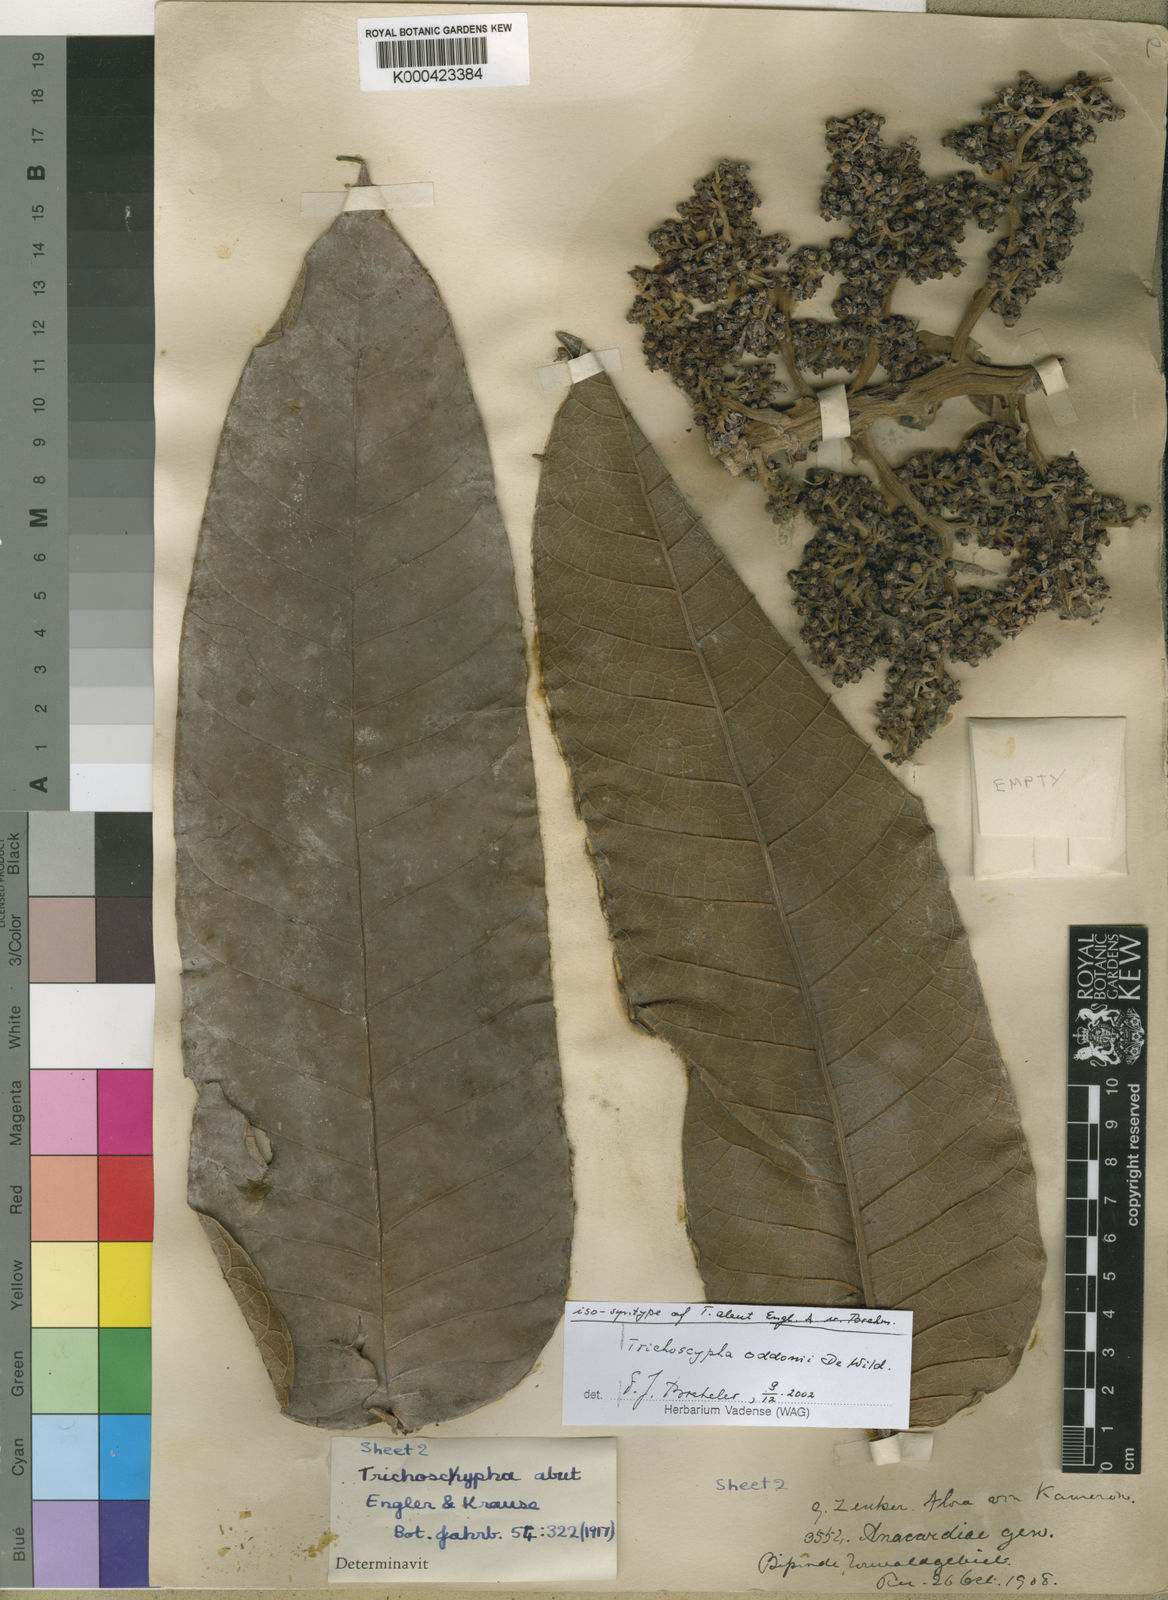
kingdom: Plantae
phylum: Tracheophyta
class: Magnoliopsida
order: Sapindales
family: Anacardiaceae
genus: Trichoscypha
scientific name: Trichoscypha oddonii
